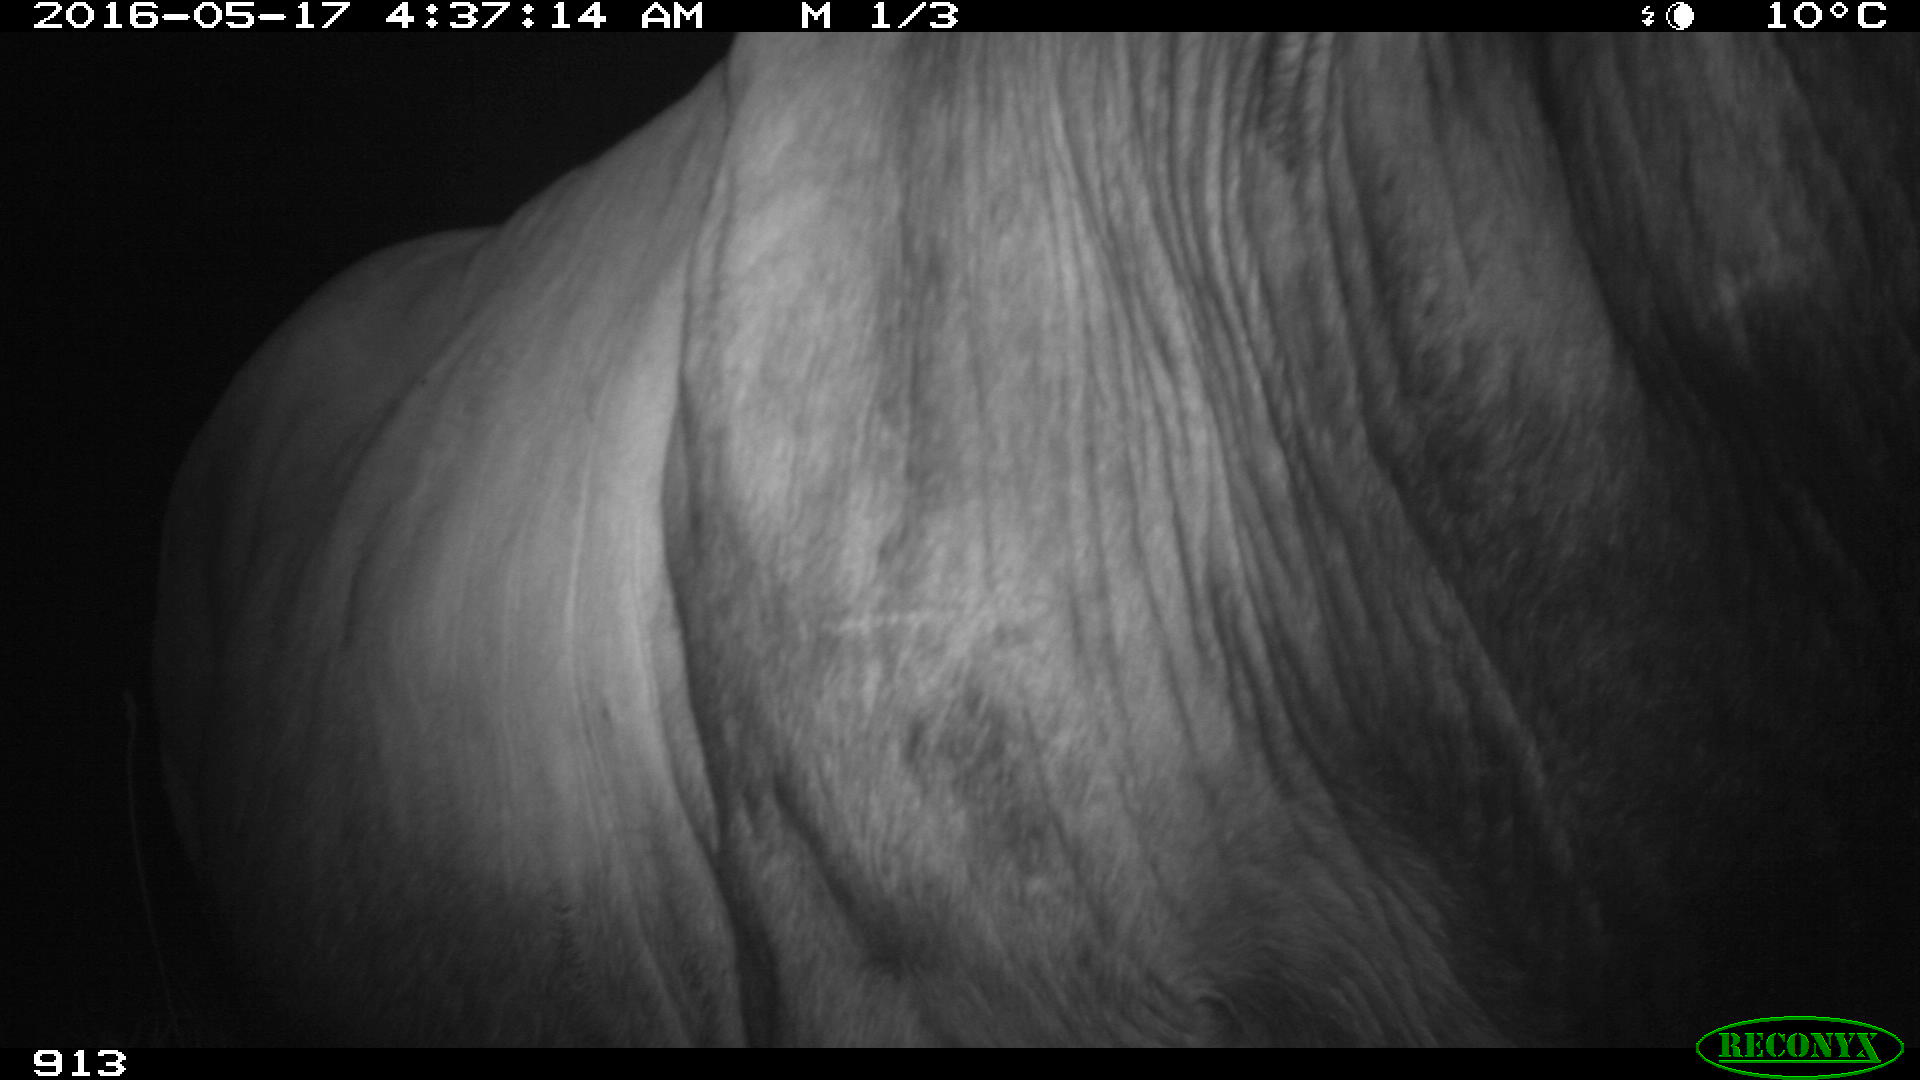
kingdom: Animalia
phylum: Chordata
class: Mammalia
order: Artiodactyla
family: Bovidae
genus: Bos
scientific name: Bos taurus
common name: Domesticated cattle
